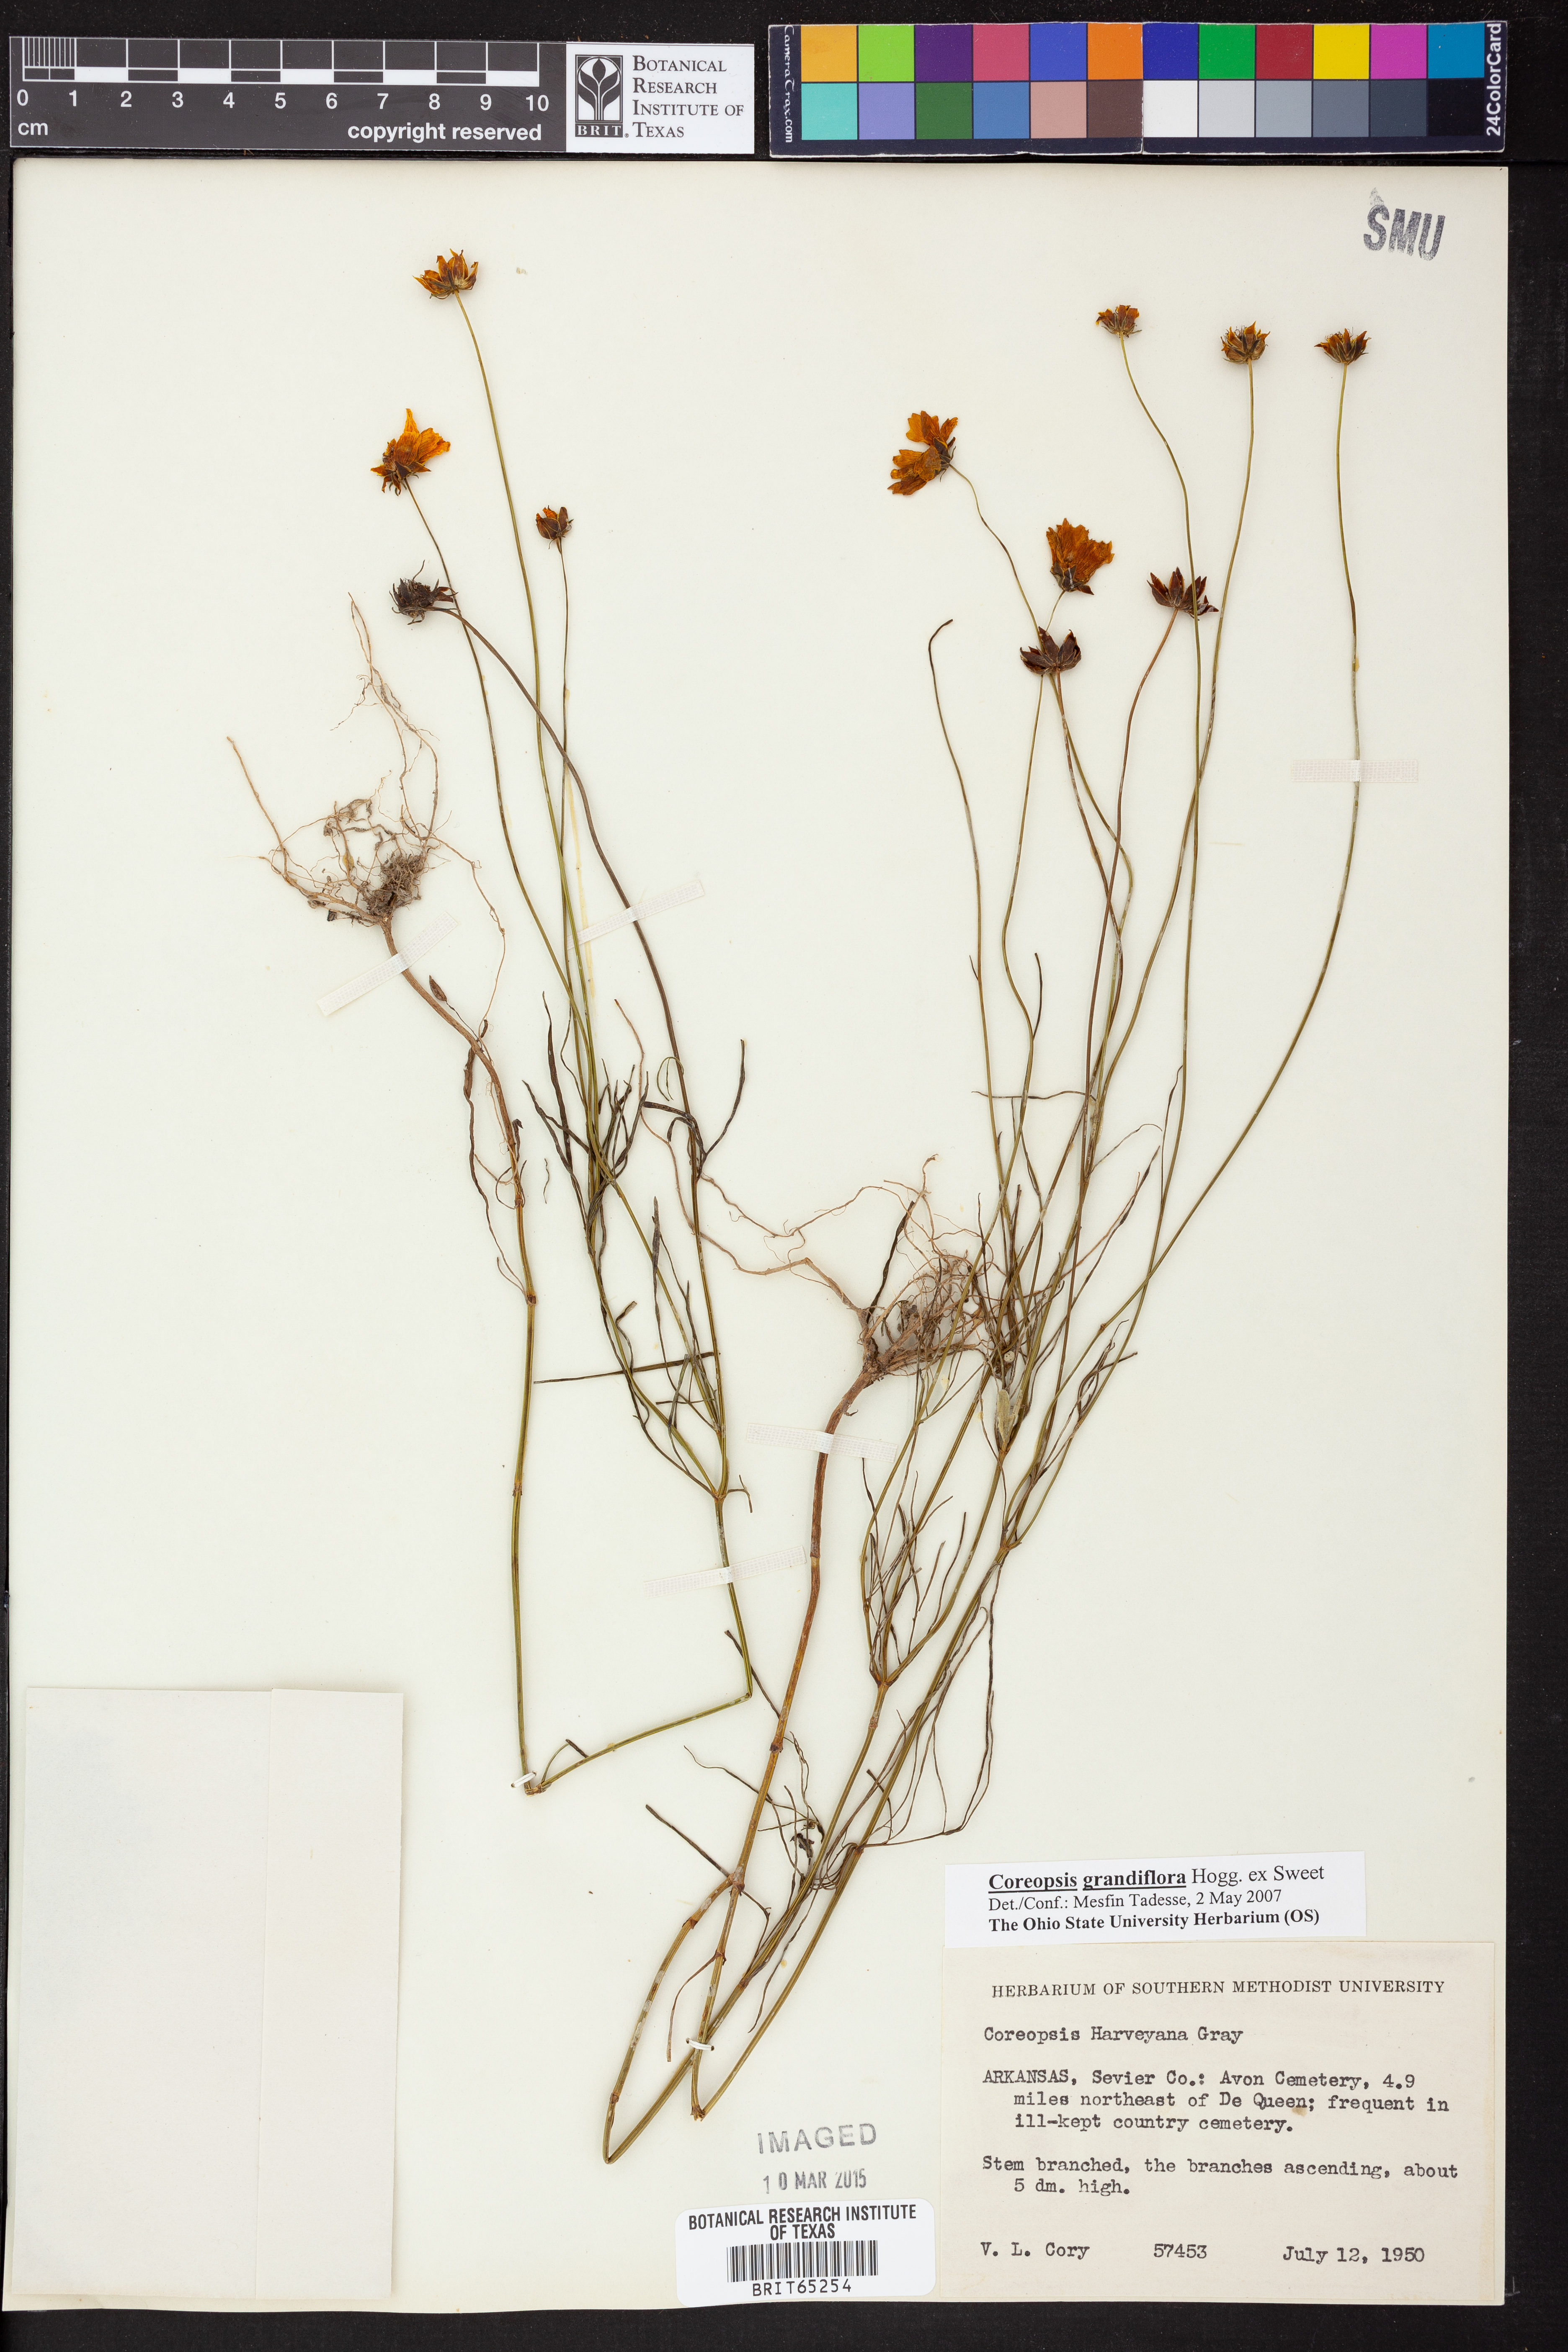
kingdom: Plantae
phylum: Tracheophyta
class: Magnoliopsida
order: Asterales
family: Asteraceae
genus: Coreopsis
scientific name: Coreopsis grandiflora
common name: Large-flowered tickseed
